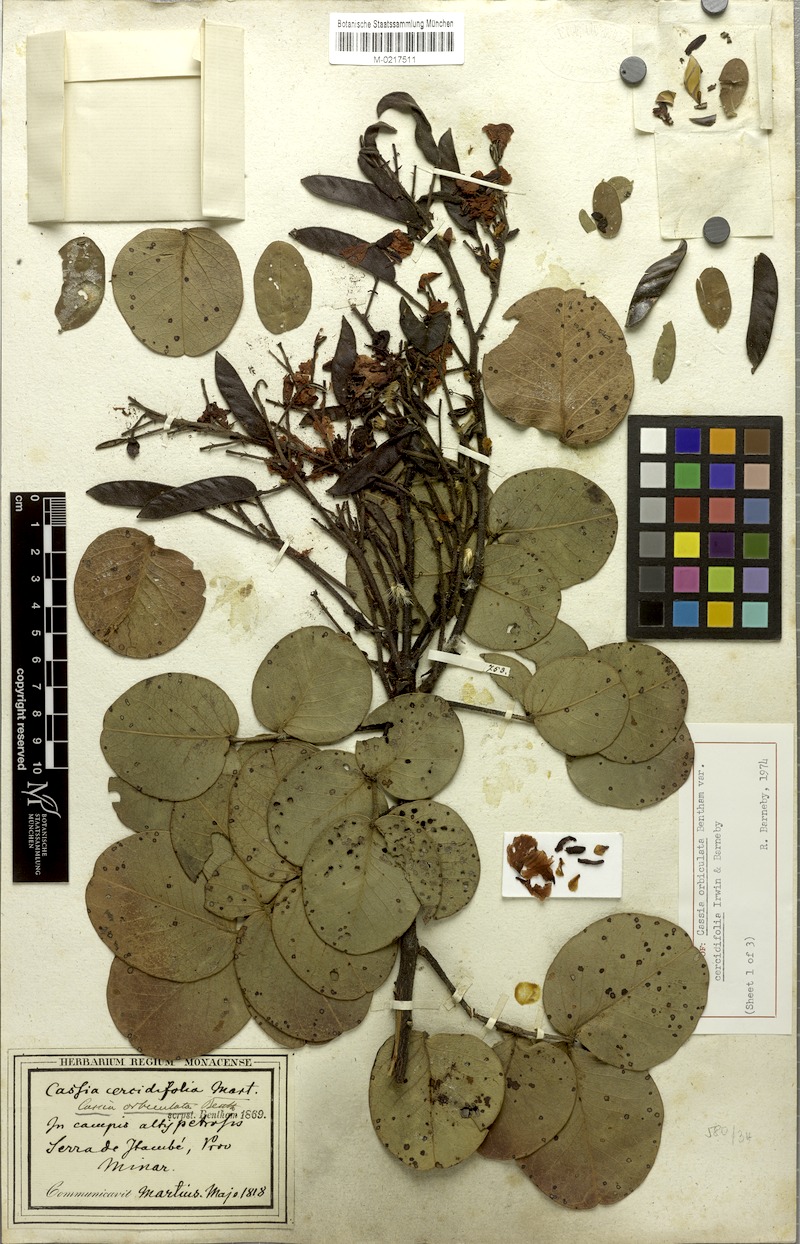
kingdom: Plantae
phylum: Tracheophyta
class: Magnoliopsida
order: Fabales
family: Fabaceae
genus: Chamaecrista
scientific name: Chamaecrista cercidifolia
